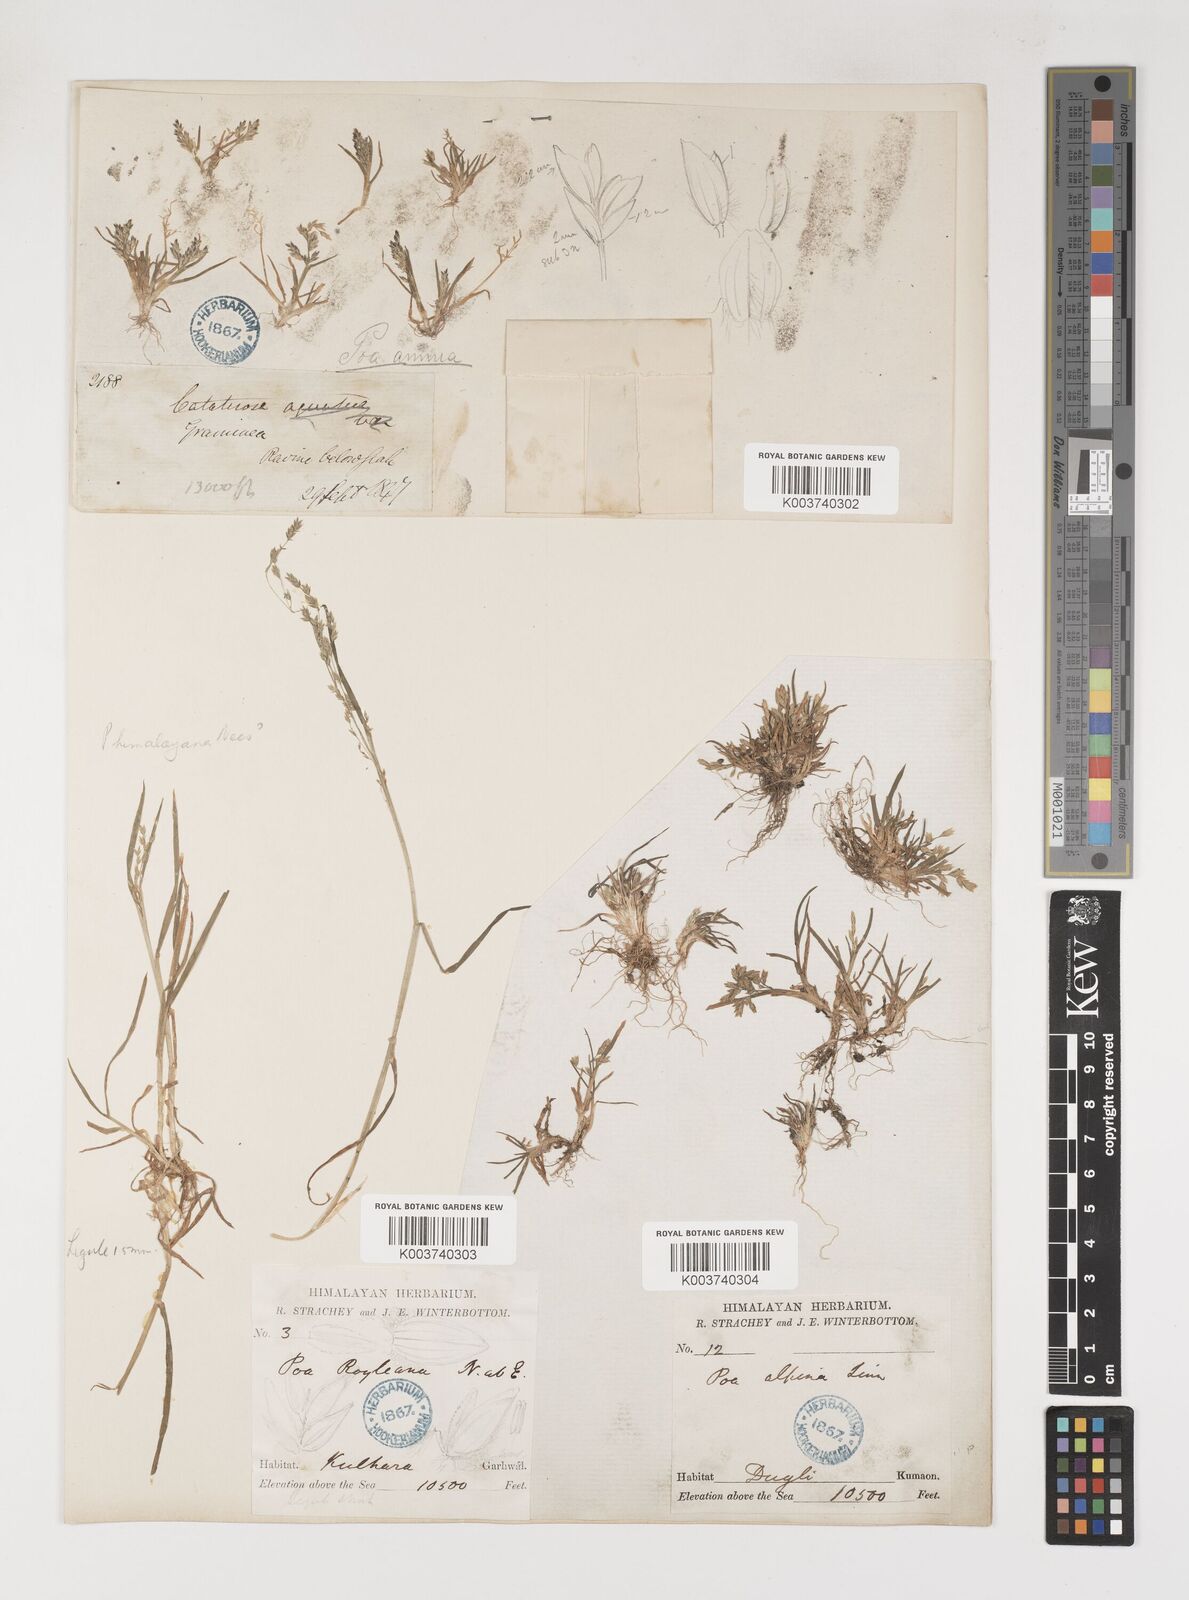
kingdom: Plantae
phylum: Tracheophyta
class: Liliopsida
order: Poales
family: Poaceae
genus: Poa
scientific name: Poa annua
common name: Annual bluegrass
